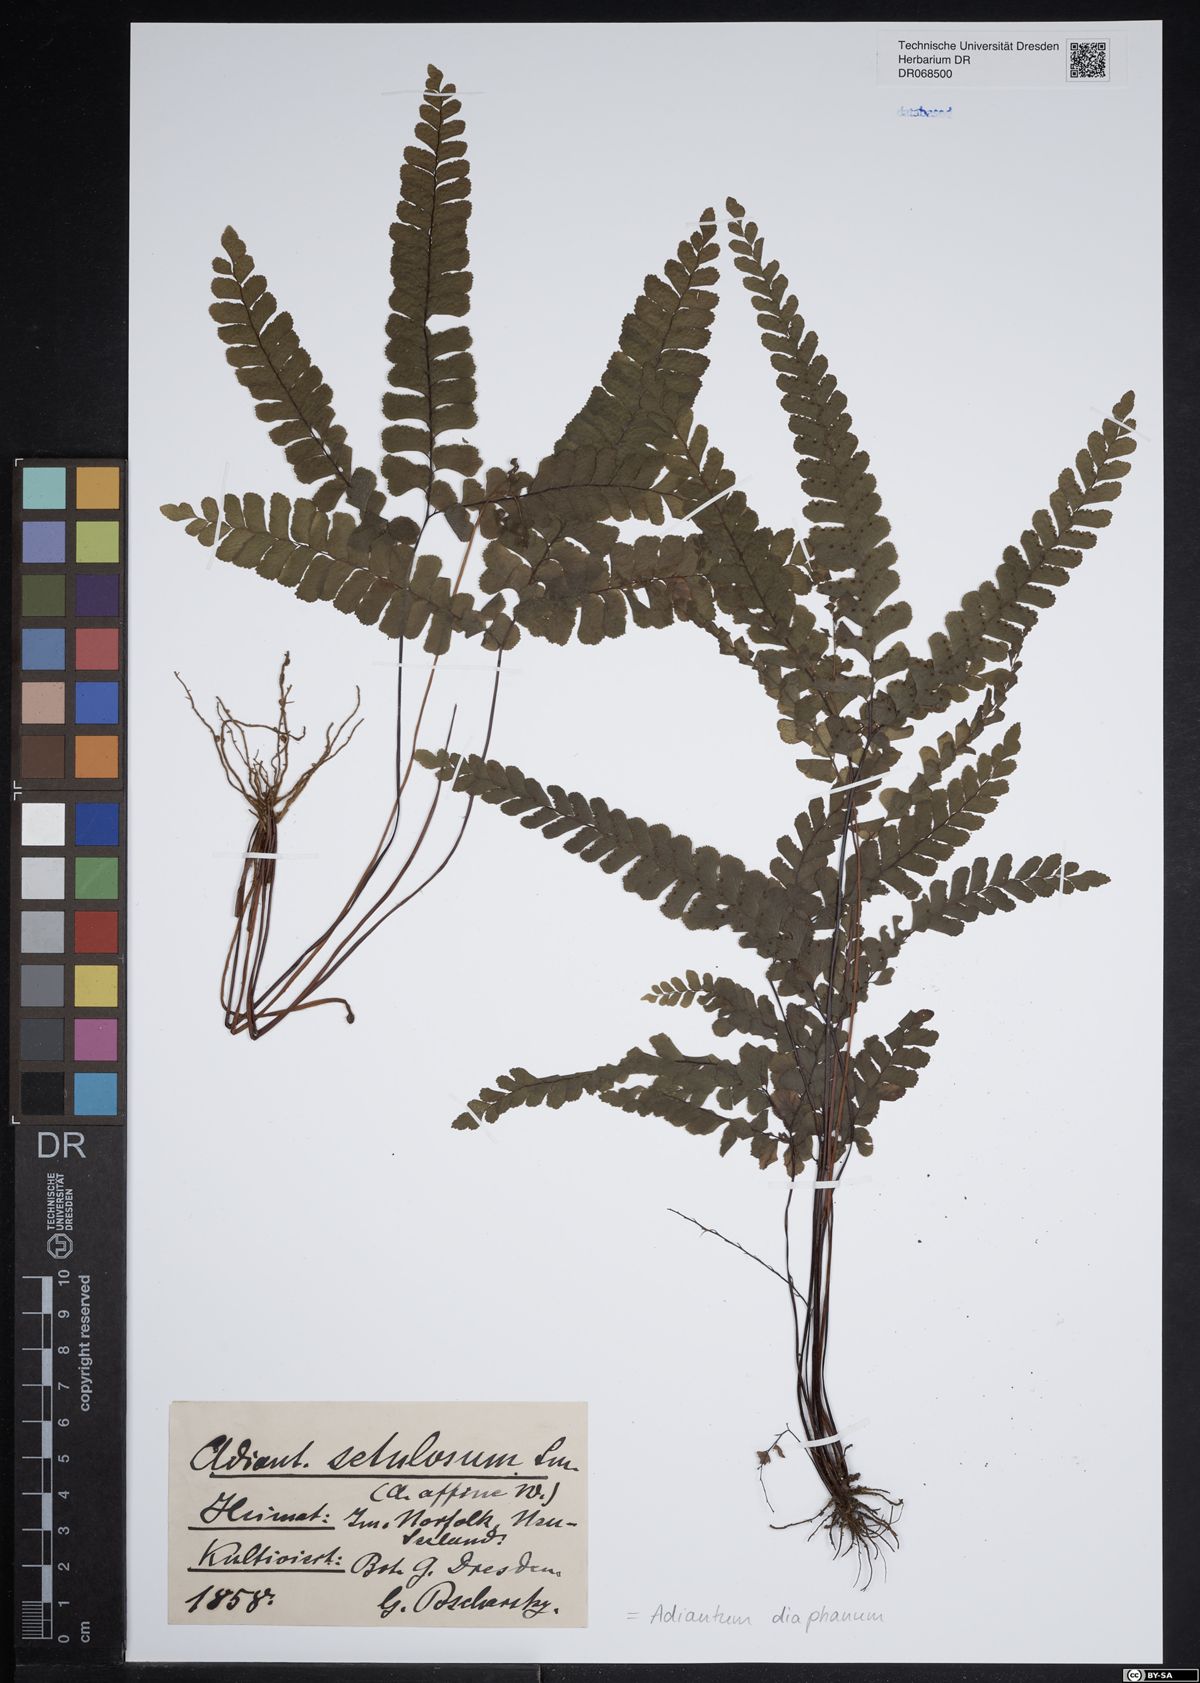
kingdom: Plantae
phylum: Tracheophyta
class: Polypodiopsida
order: Polypodiales
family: Pteridaceae
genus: Adiantum
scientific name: Adiantum diaphanum
